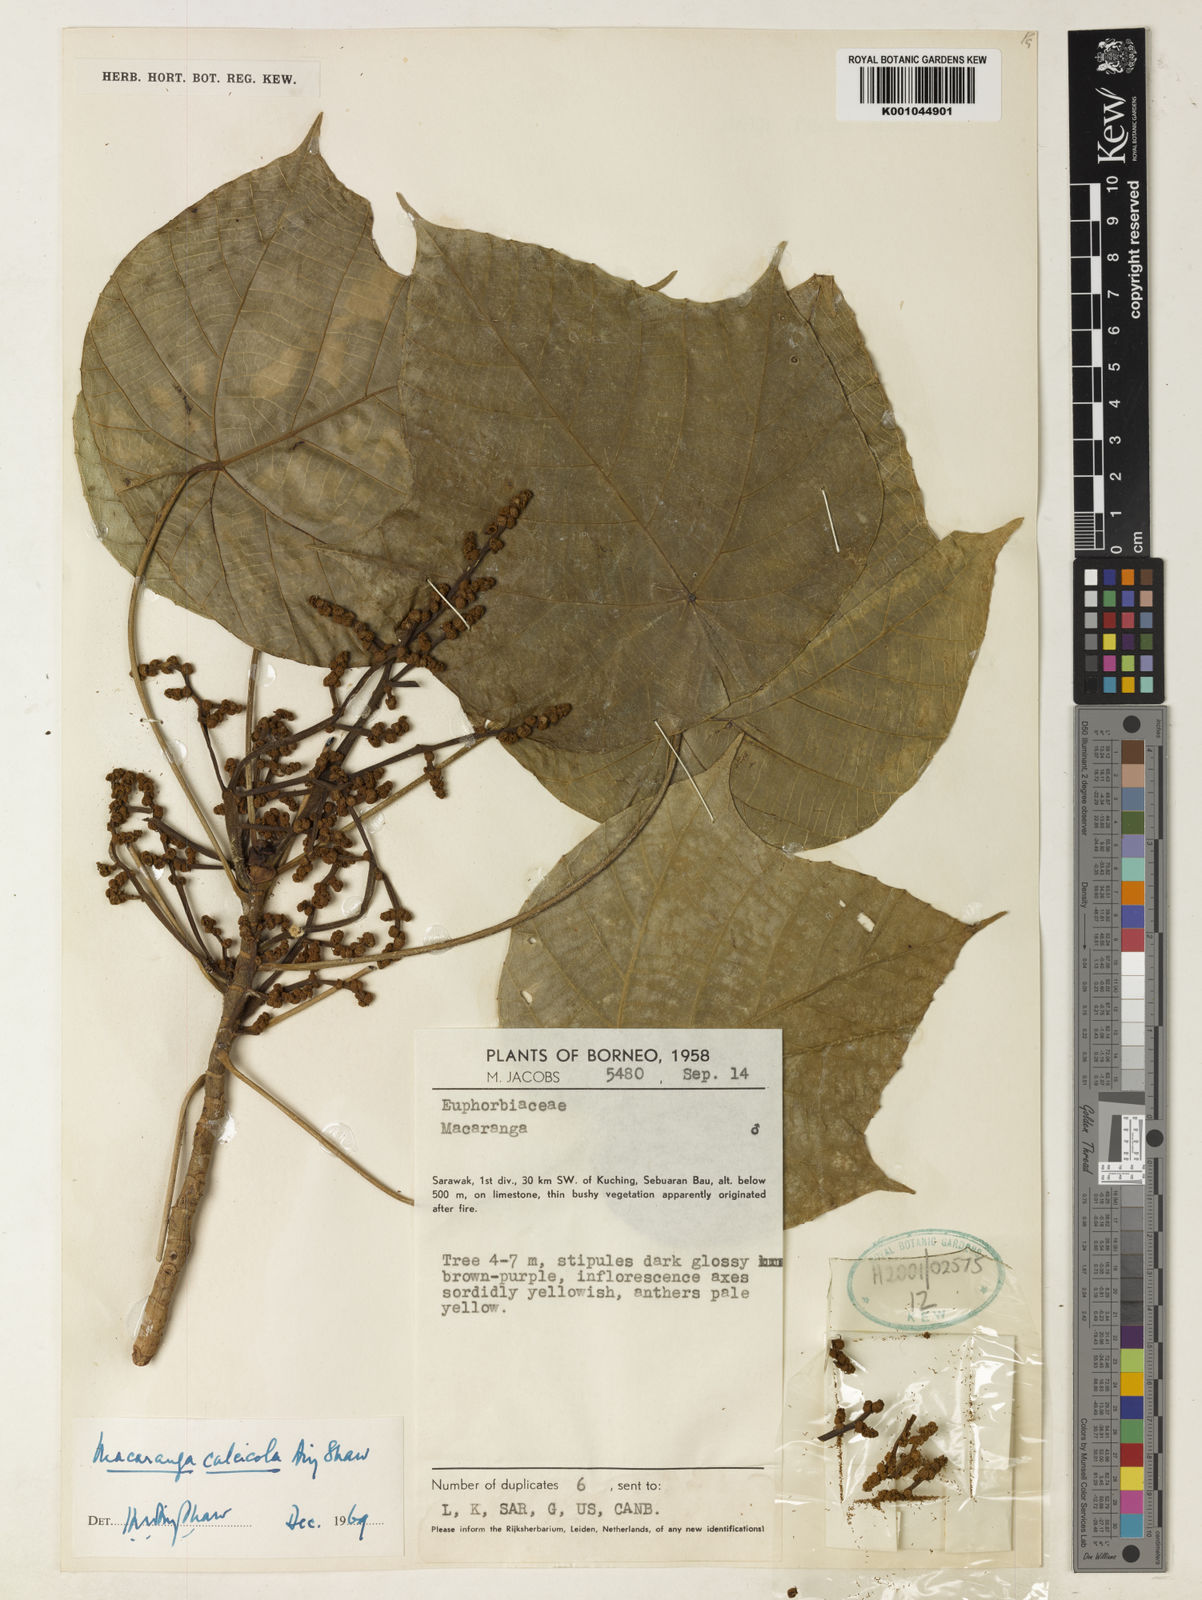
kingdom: Plantae
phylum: Tracheophyta
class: Magnoliopsida
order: Malpighiales
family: Euphorbiaceae
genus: Macaranga
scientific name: Macaranga calcicola
